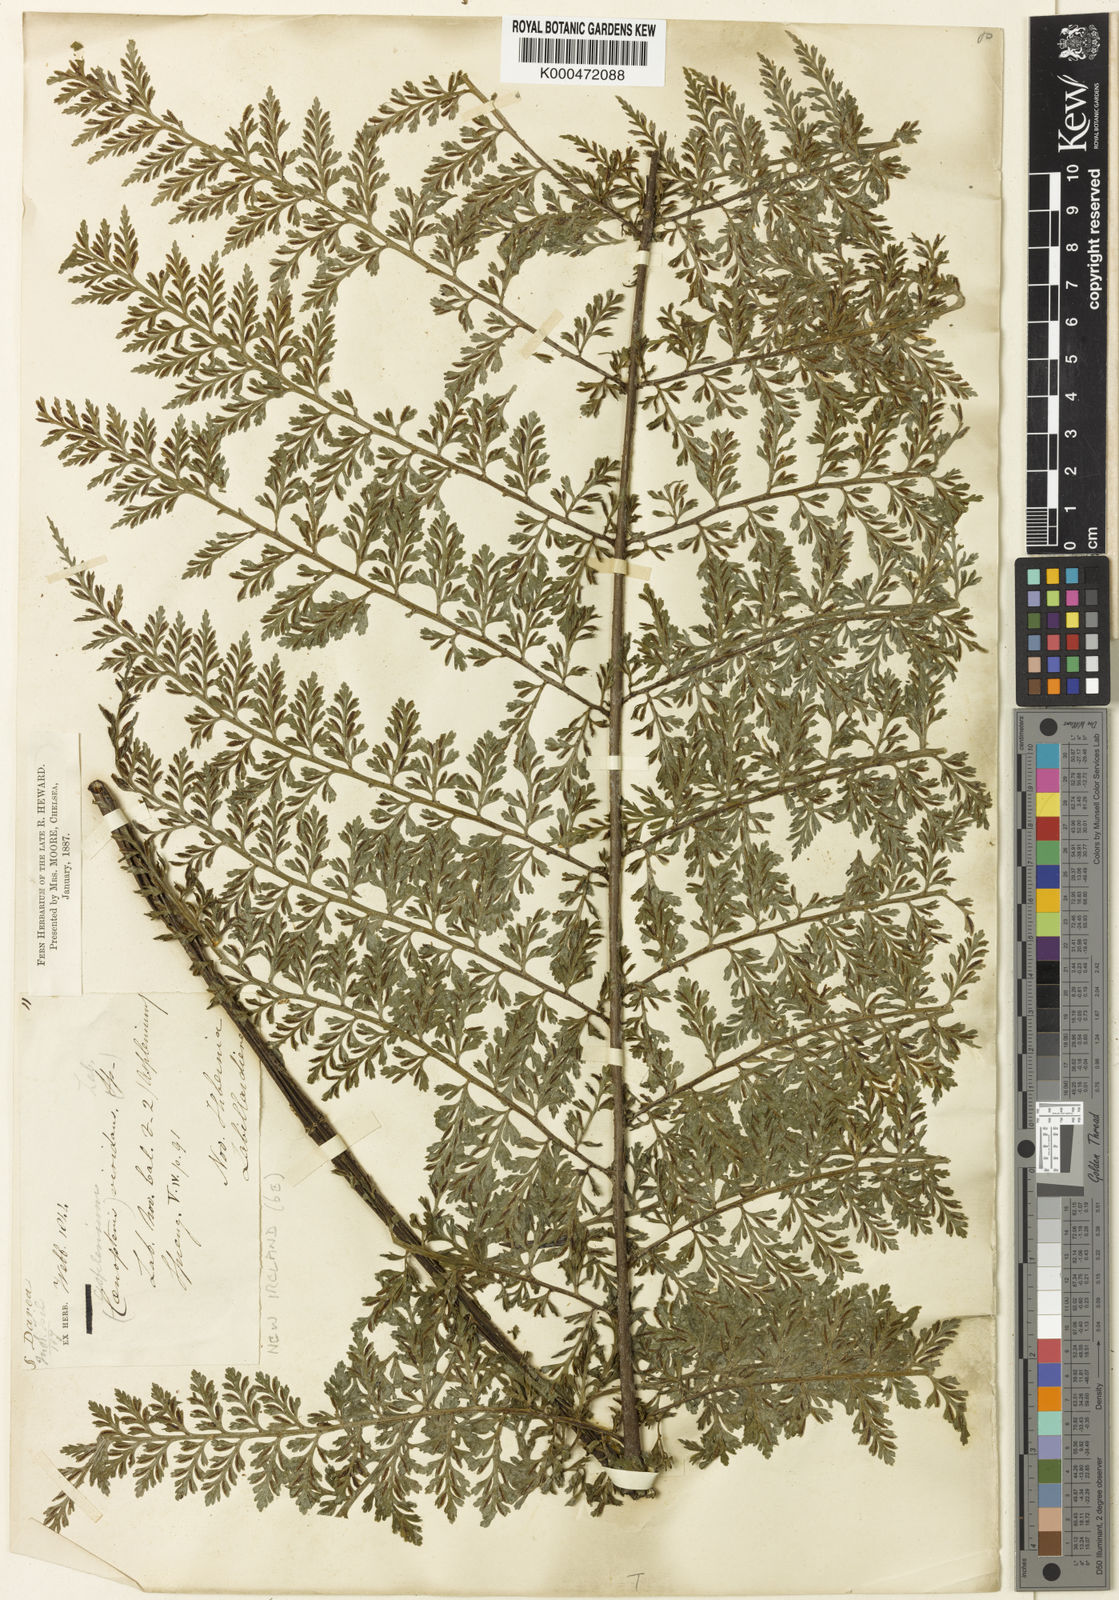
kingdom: Plantae
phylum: Tracheophyta
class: Polypodiopsida
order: Polypodiales
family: Aspleniaceae
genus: Asplenium
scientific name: Asplenium viridans
